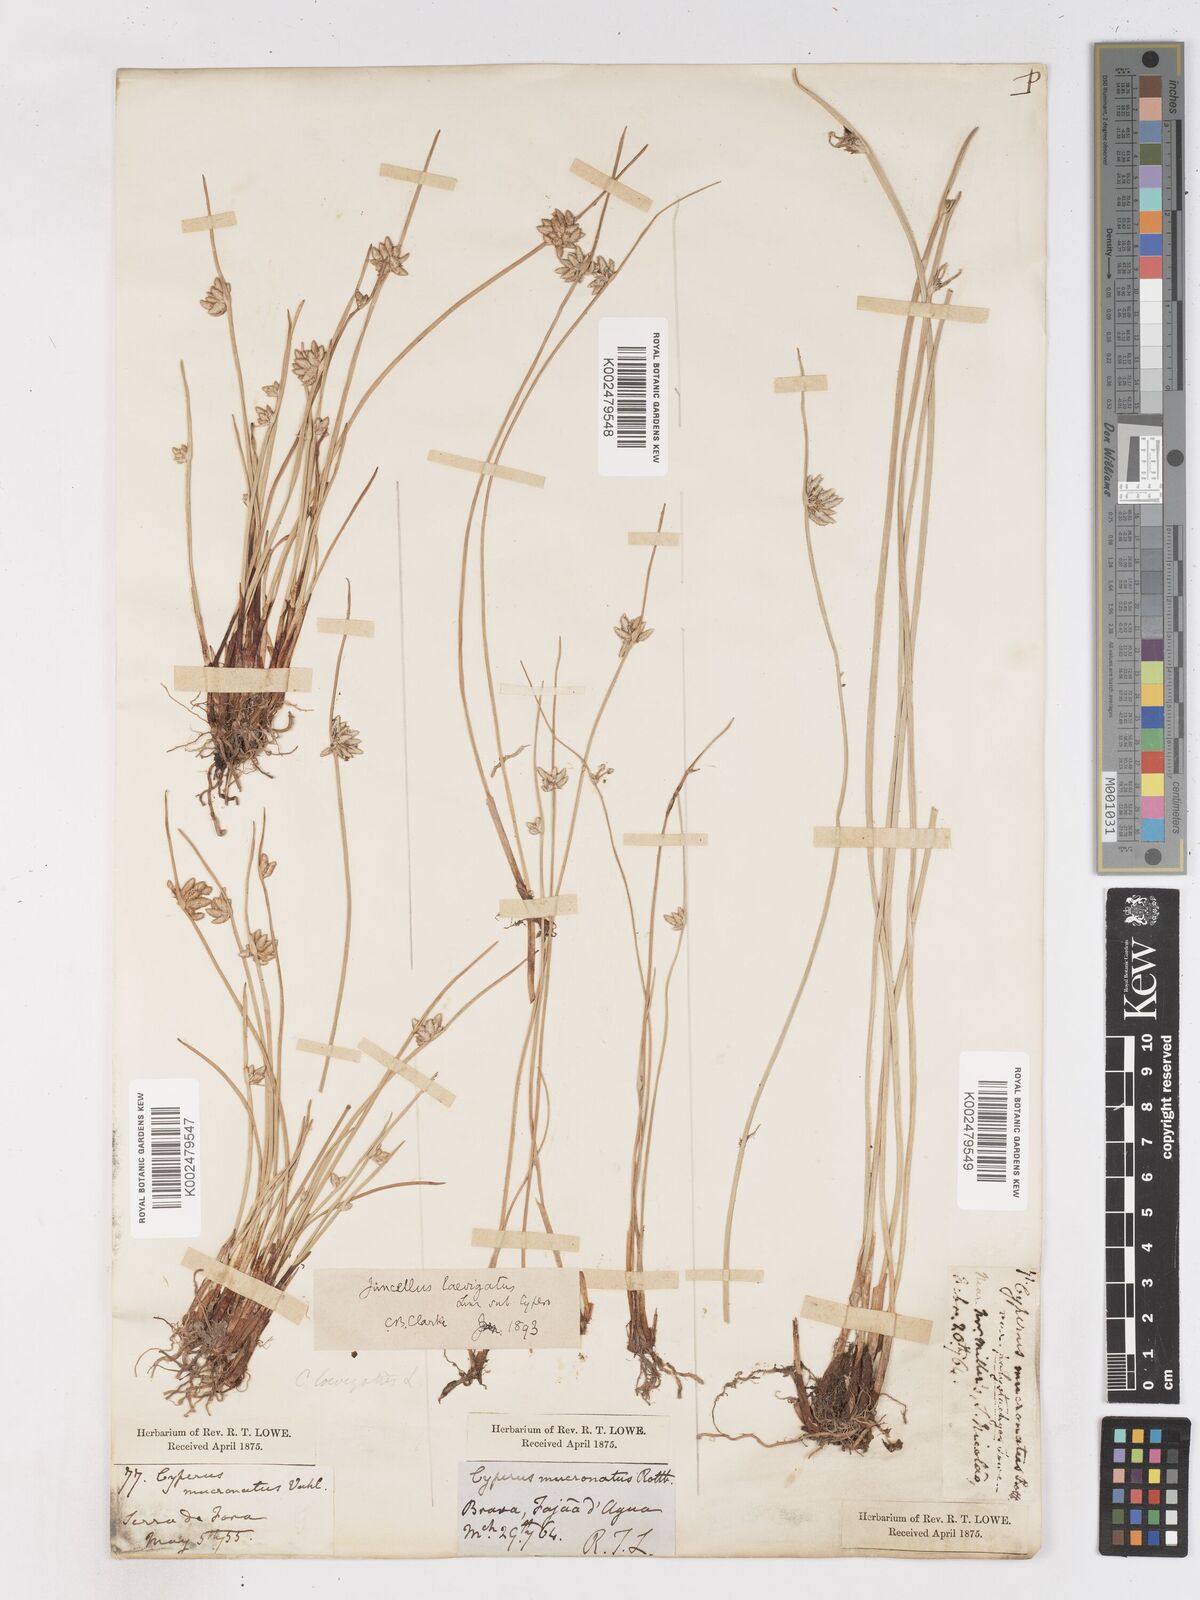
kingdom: Plantae
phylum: Tracheophyta
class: Liliopsida
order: Poales
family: Cyperaceae
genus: Cyperus
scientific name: Cyperus laevigatus
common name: Smooth flat sedge
